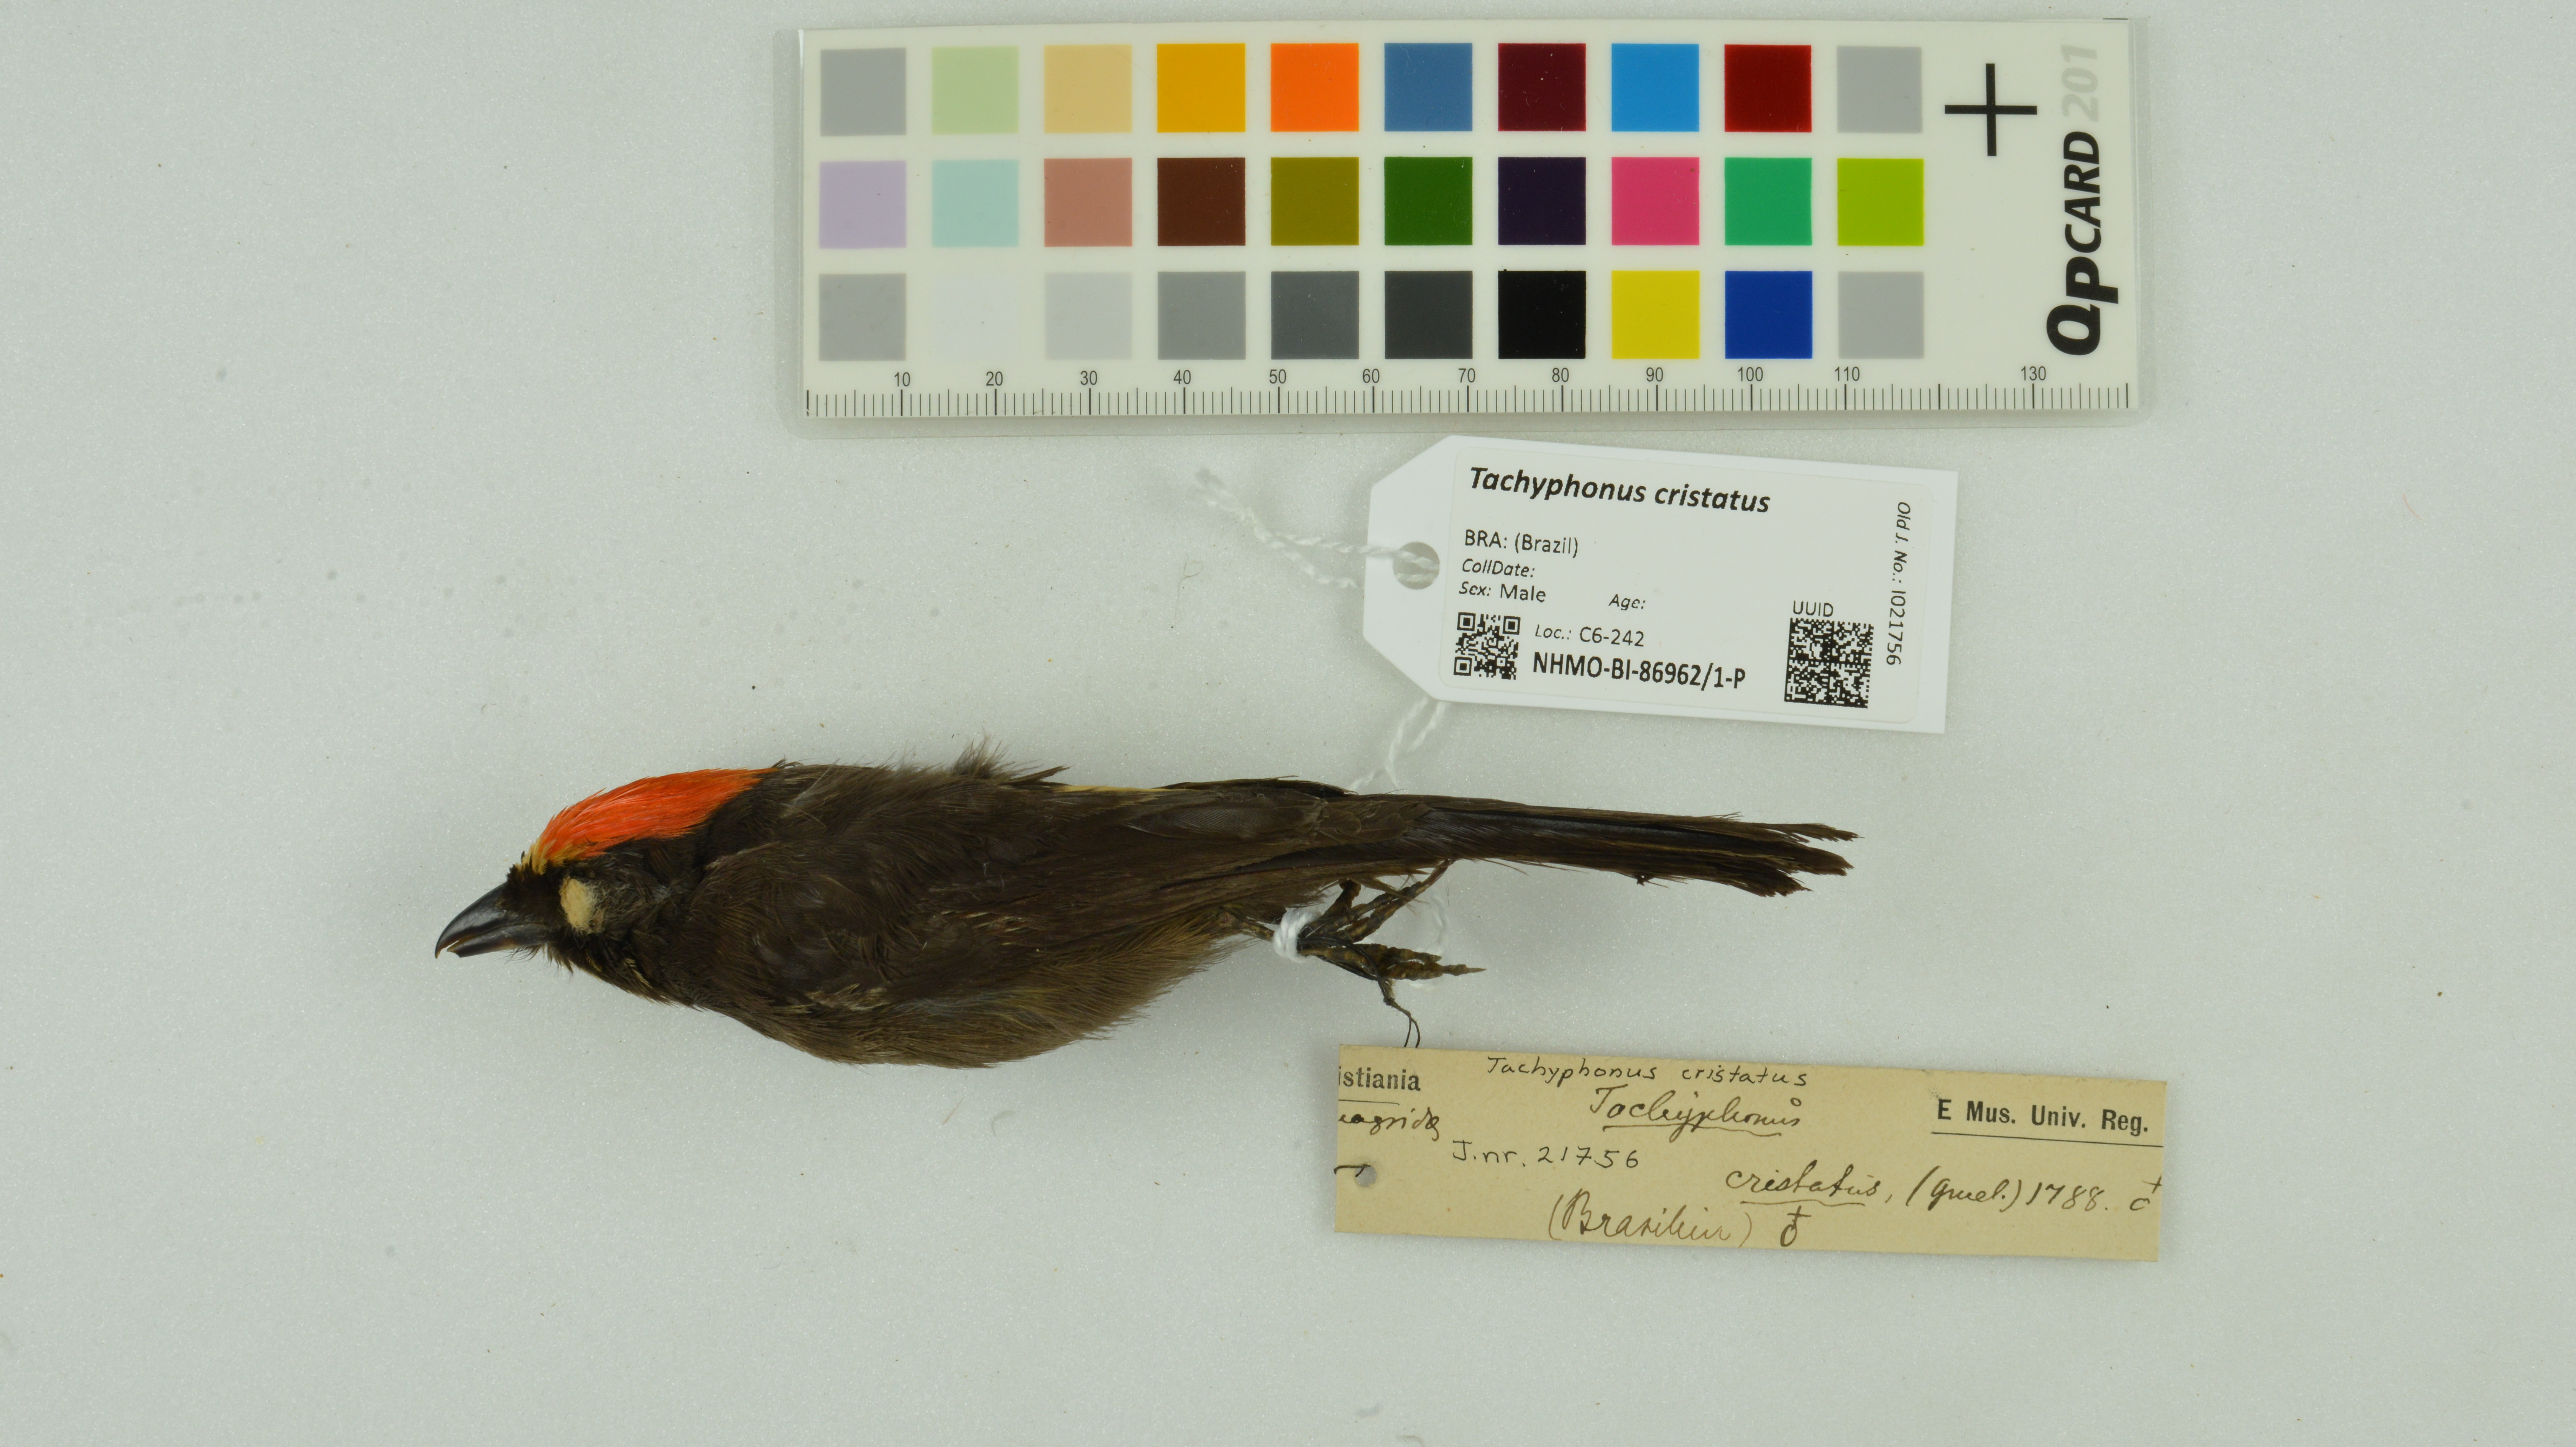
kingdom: Animalia
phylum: Chordata
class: Aves
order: Passeriformes
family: Thraupidae
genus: Loriotus
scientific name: Loriotus cristatus
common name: Flame-crested tanager
